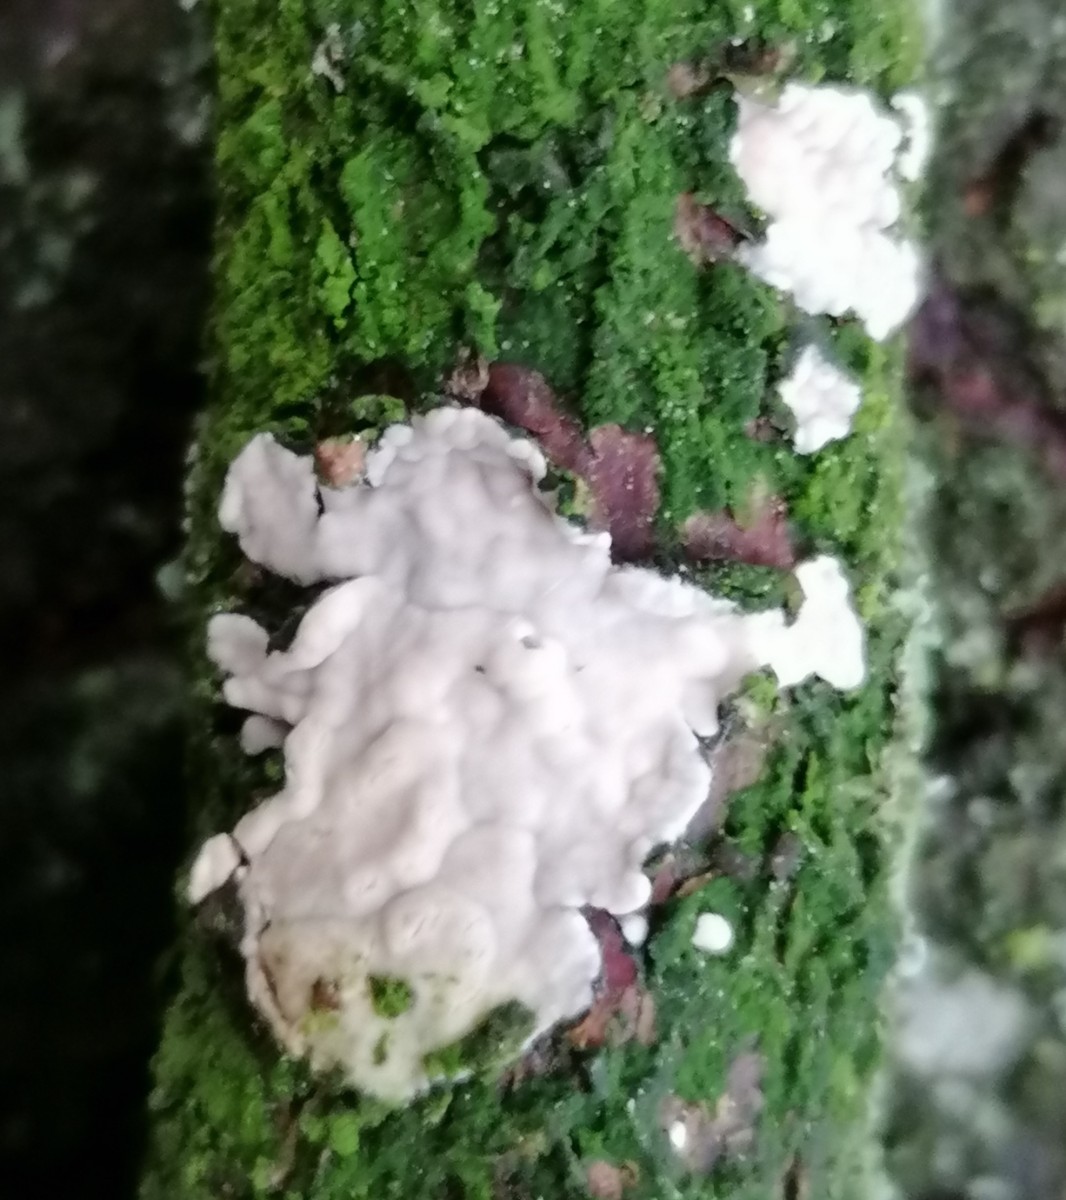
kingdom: Fungi
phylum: Basidiomycota
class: Agaricomycetes
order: Corticiales
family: Corticiaceae
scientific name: Corticiaceae
